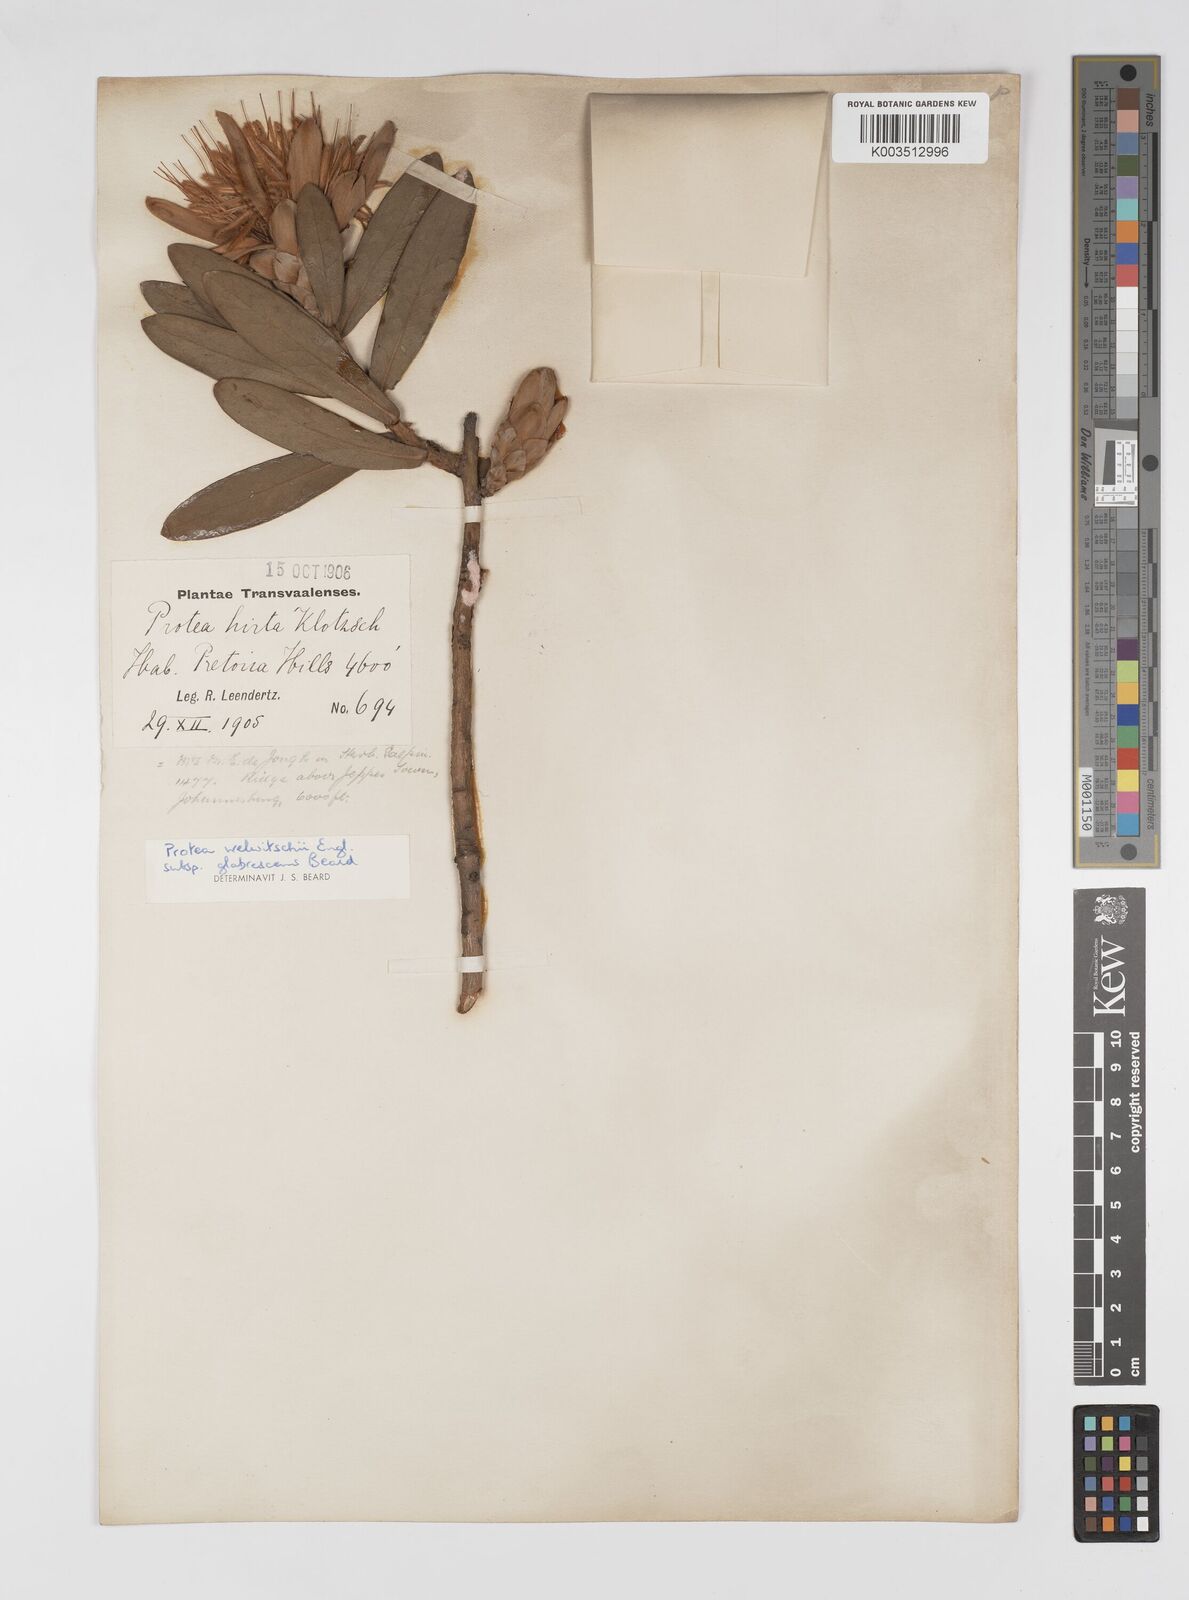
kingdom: Plantae
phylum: Tracheophyta
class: Magnoliopsida
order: Proteales
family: Proteaceae
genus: Protea
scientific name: Protea welwitschii
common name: Cluster-head protea
